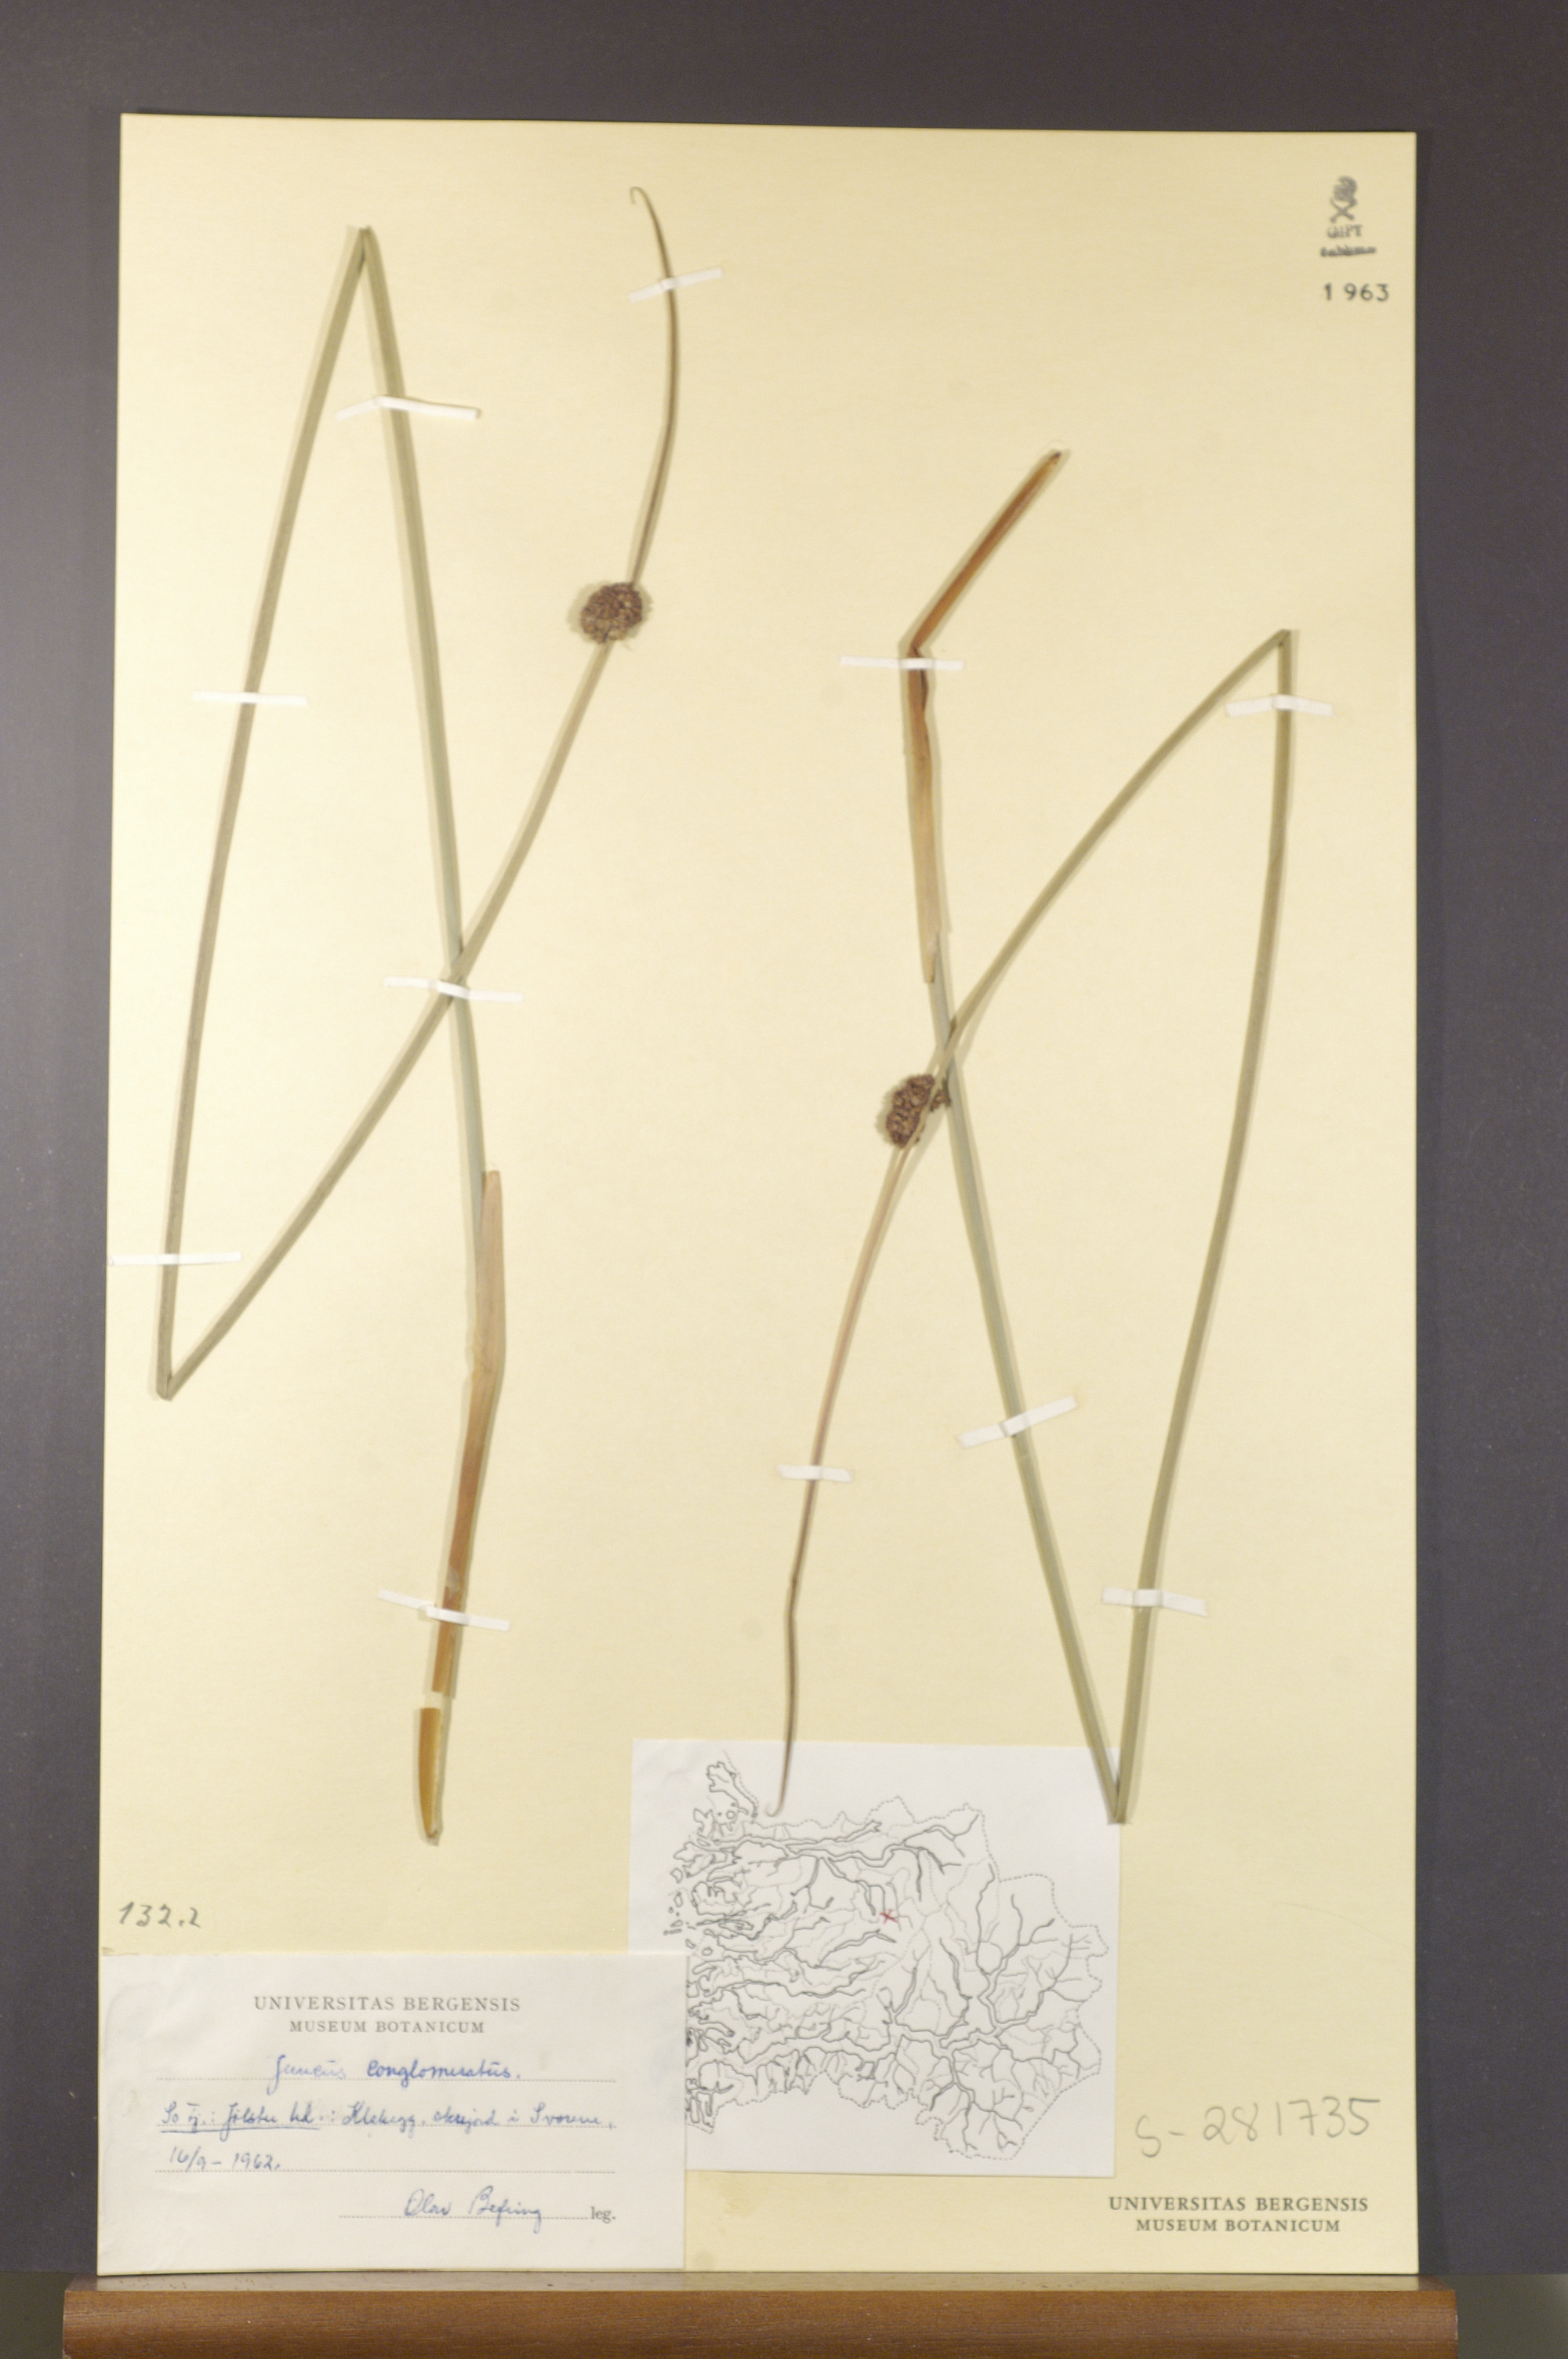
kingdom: Plantae
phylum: Tracheophyta
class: Liliopsida
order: Poales
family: Juncaceae
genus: Juncus
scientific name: Juncus conglomeratus
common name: Compact rush
